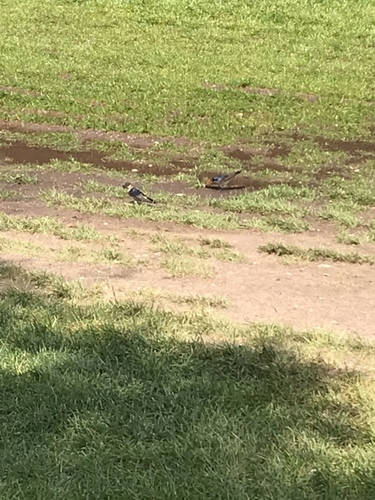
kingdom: Animalia
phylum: Chordata
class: Aves
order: Passeriformes
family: Hirundinidae
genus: Cecropis
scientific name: Cecropis daurica
